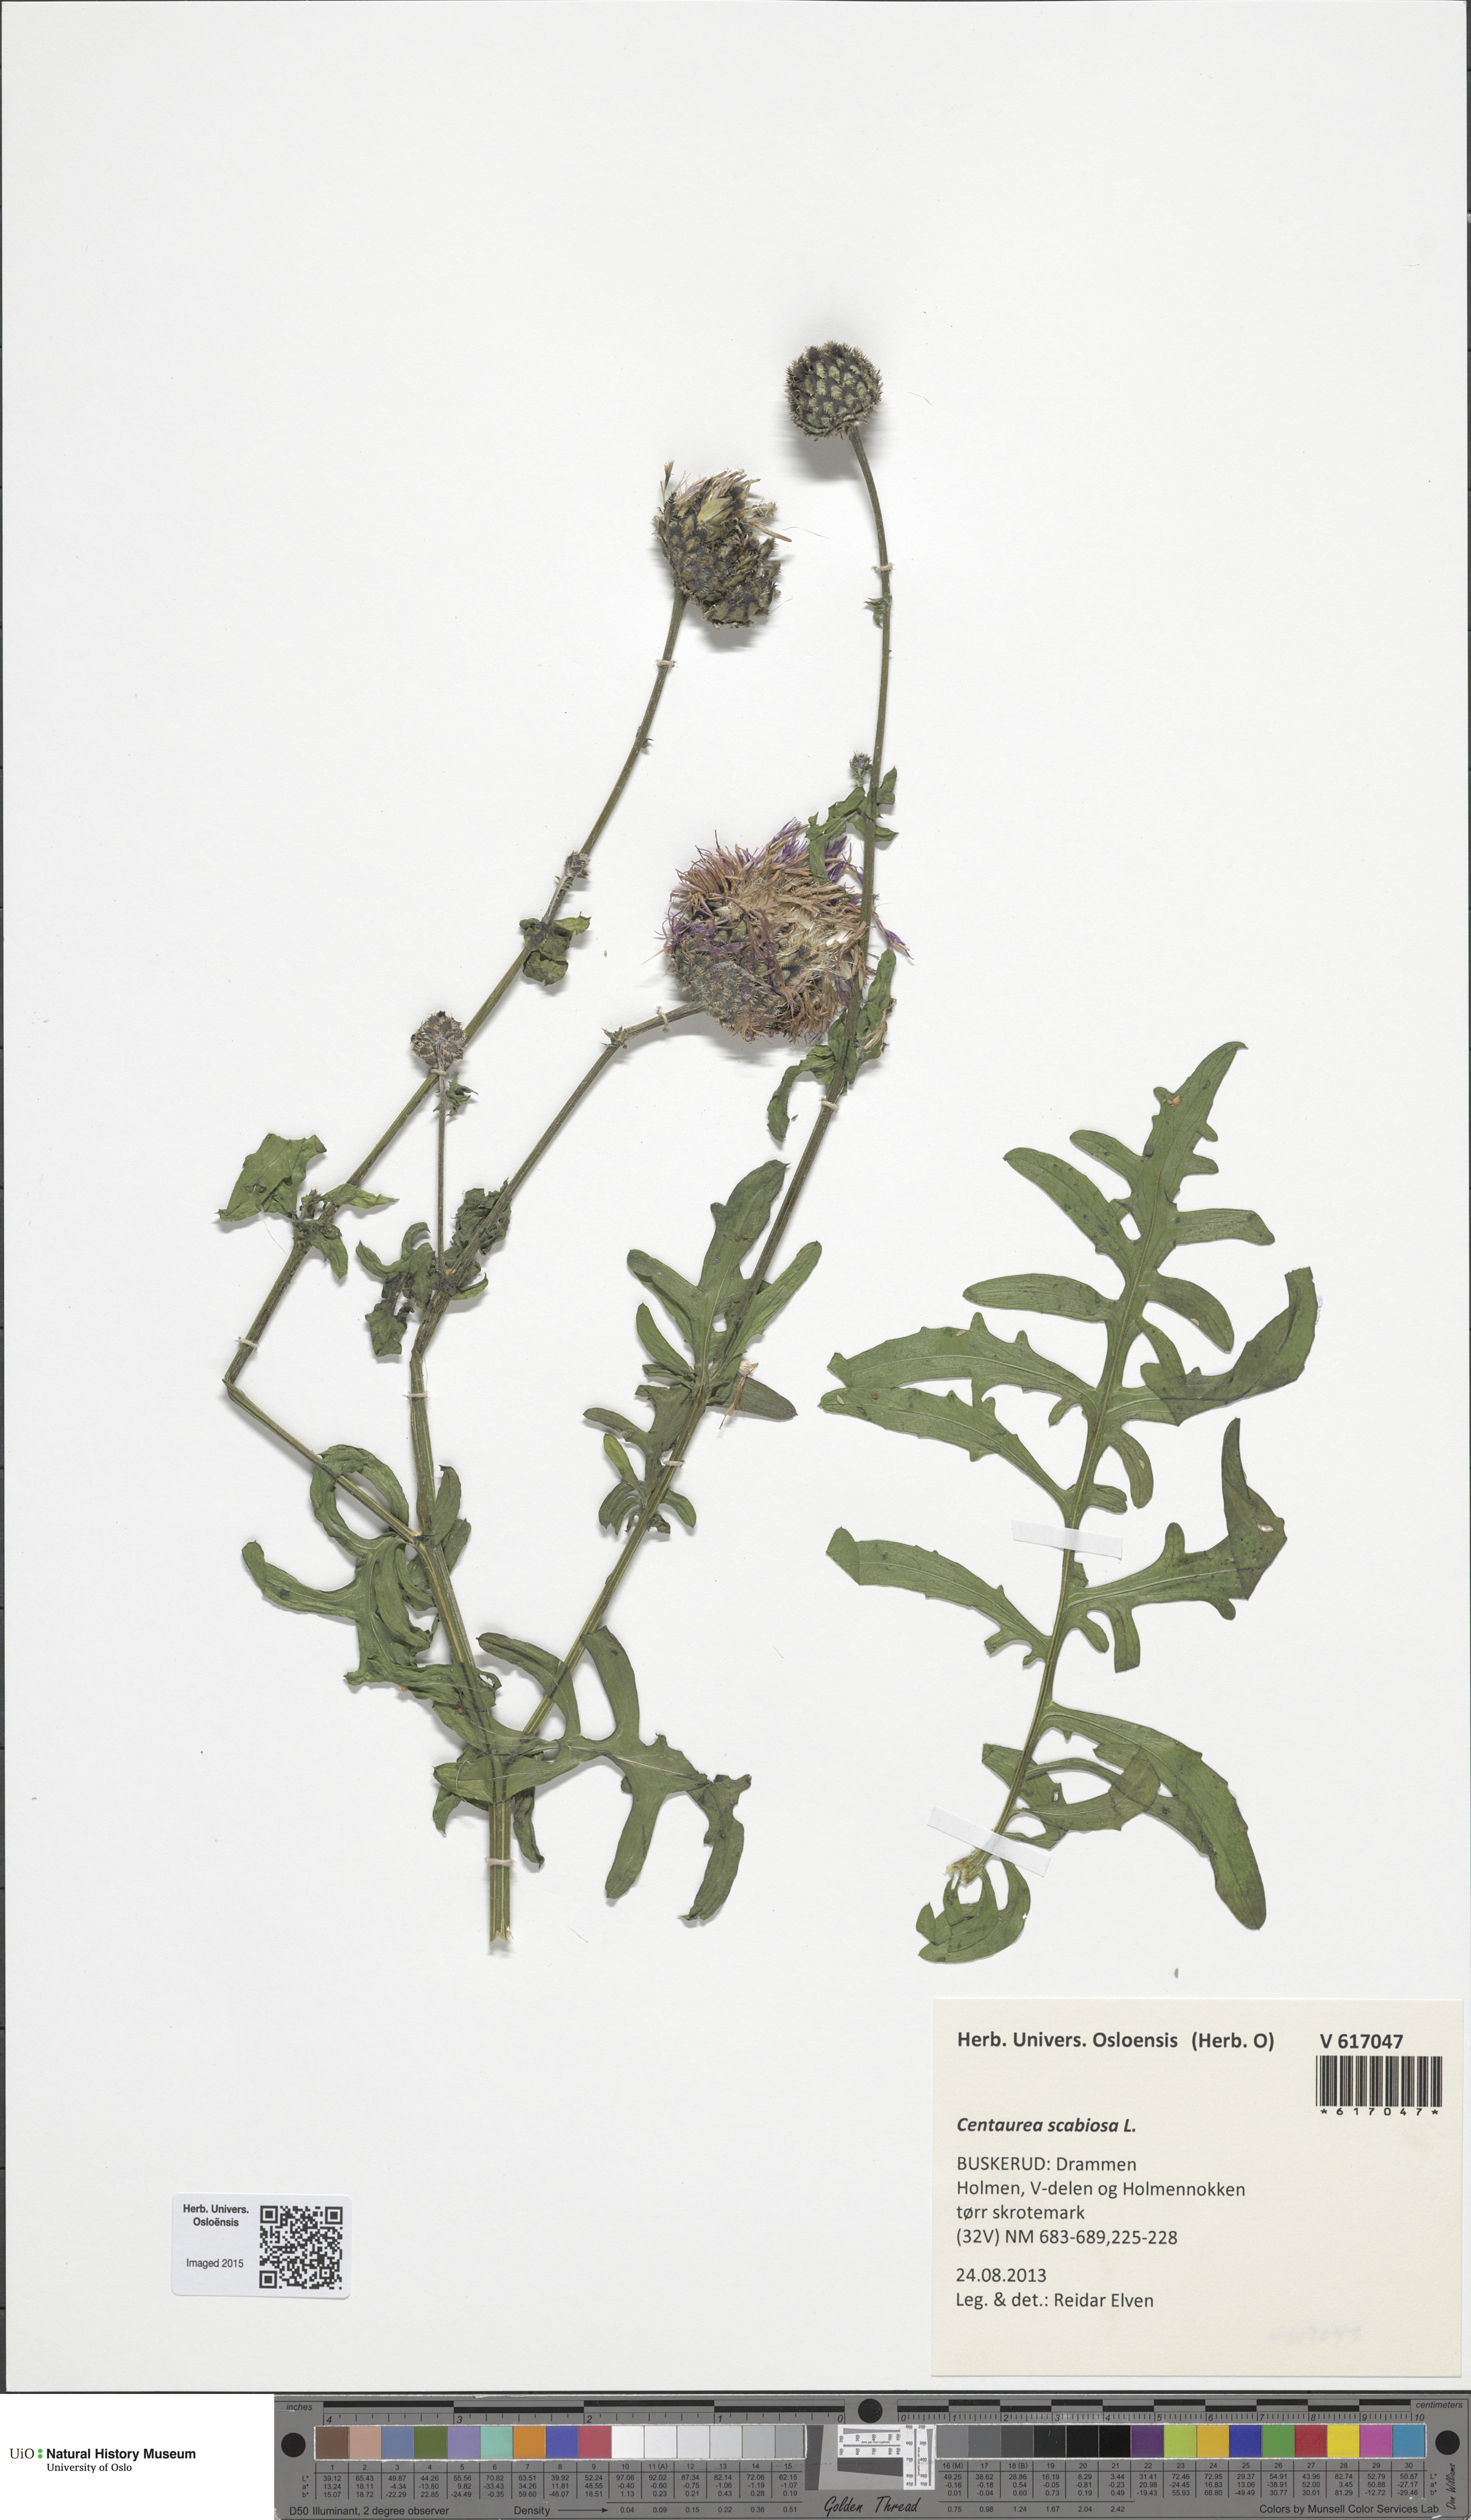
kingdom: Plantae
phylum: Tracheophyta
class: Magnoliopsida
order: Asterales
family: Asteraceae
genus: Centaurea
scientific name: Centaurea scabiosa
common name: Greater knapweed
